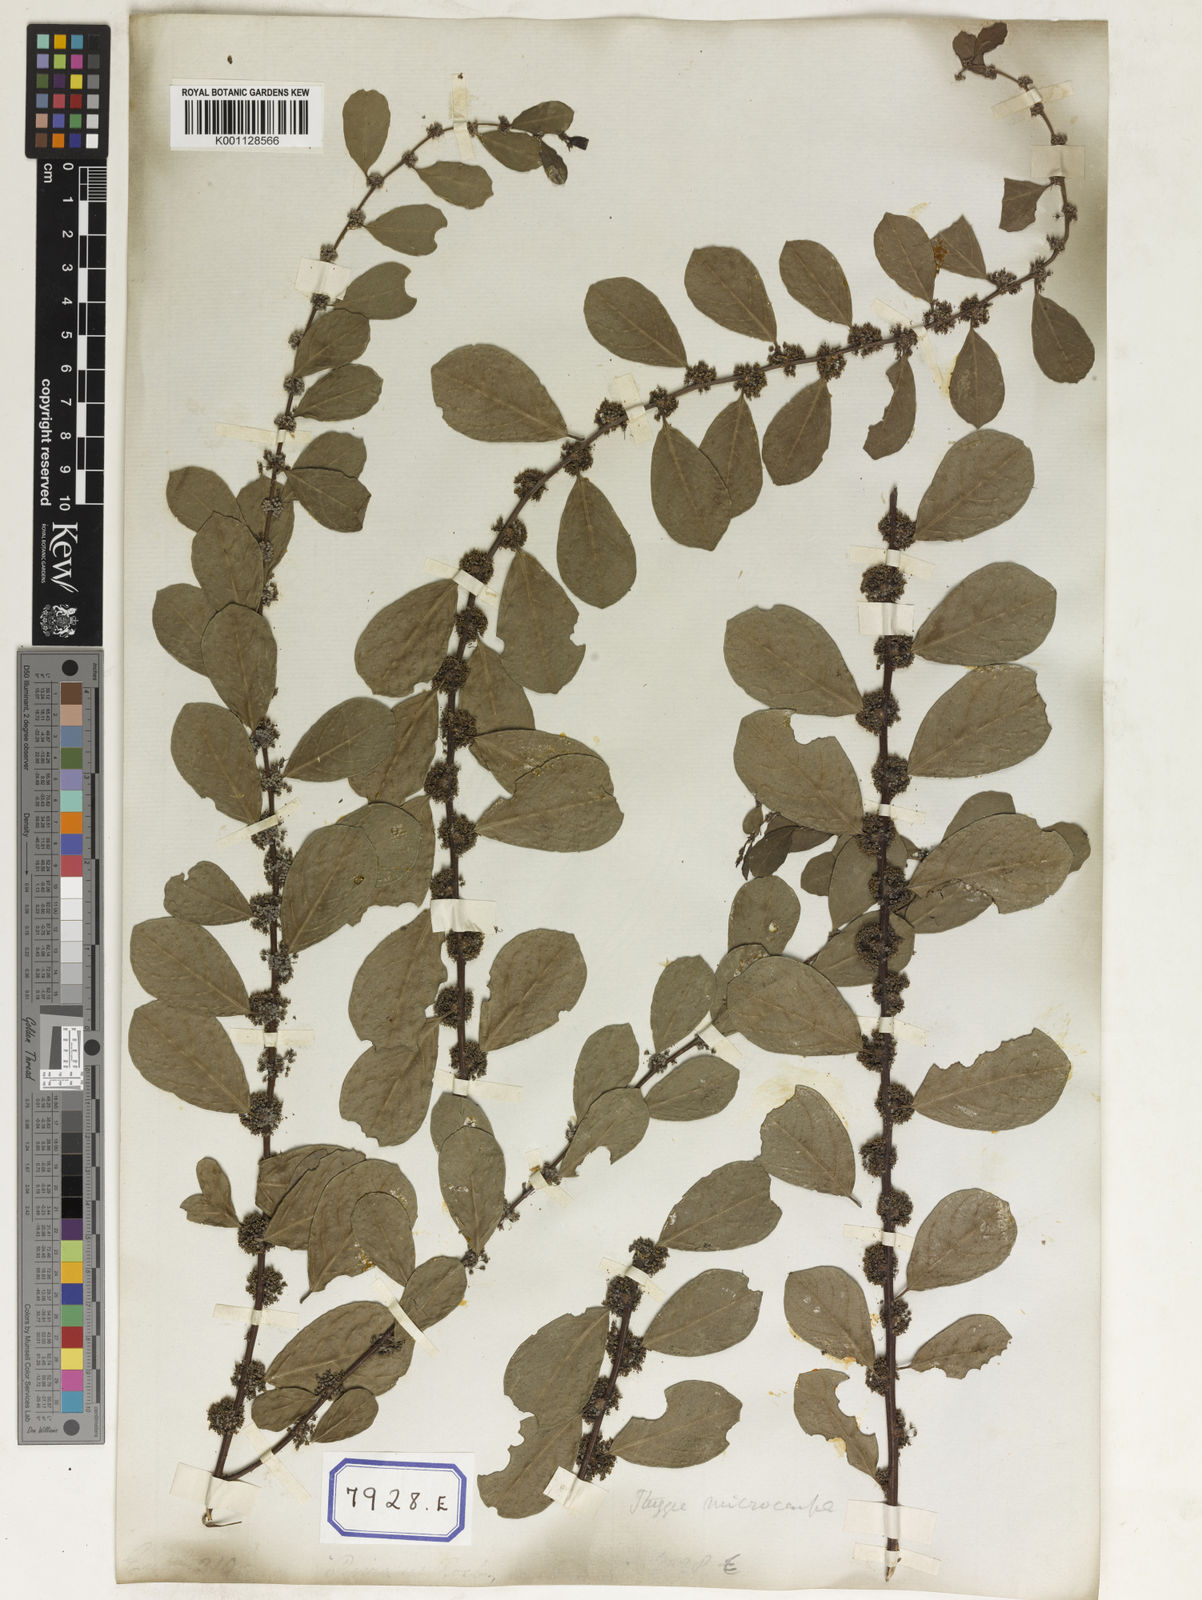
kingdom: Plantae
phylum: Tracheophyta
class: Magnoliopsida
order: Malpighiales
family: Euphorbiaceae
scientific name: Euphorbiaceae
